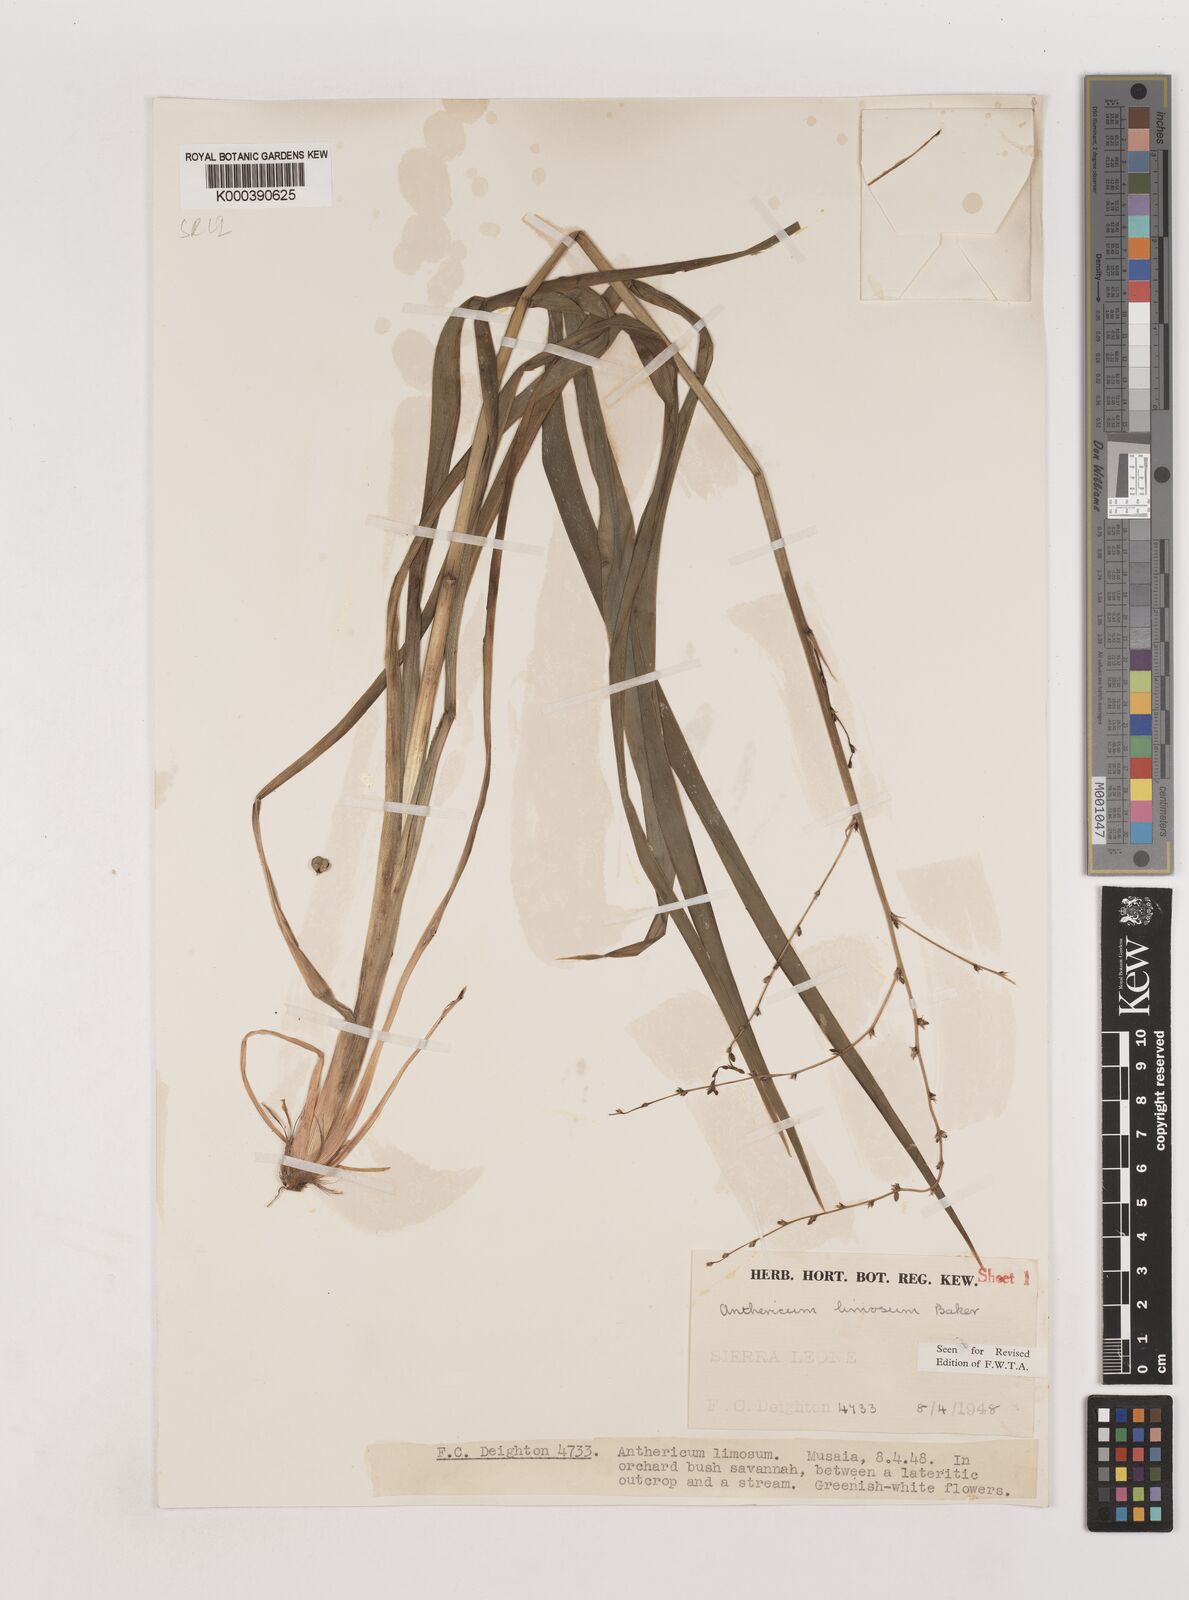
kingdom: Plantae
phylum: Tracheophyta
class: Liliopsida
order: Asparagales
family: Asparagaceae
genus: Chlorophytum
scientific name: Chlorophytum limosum
